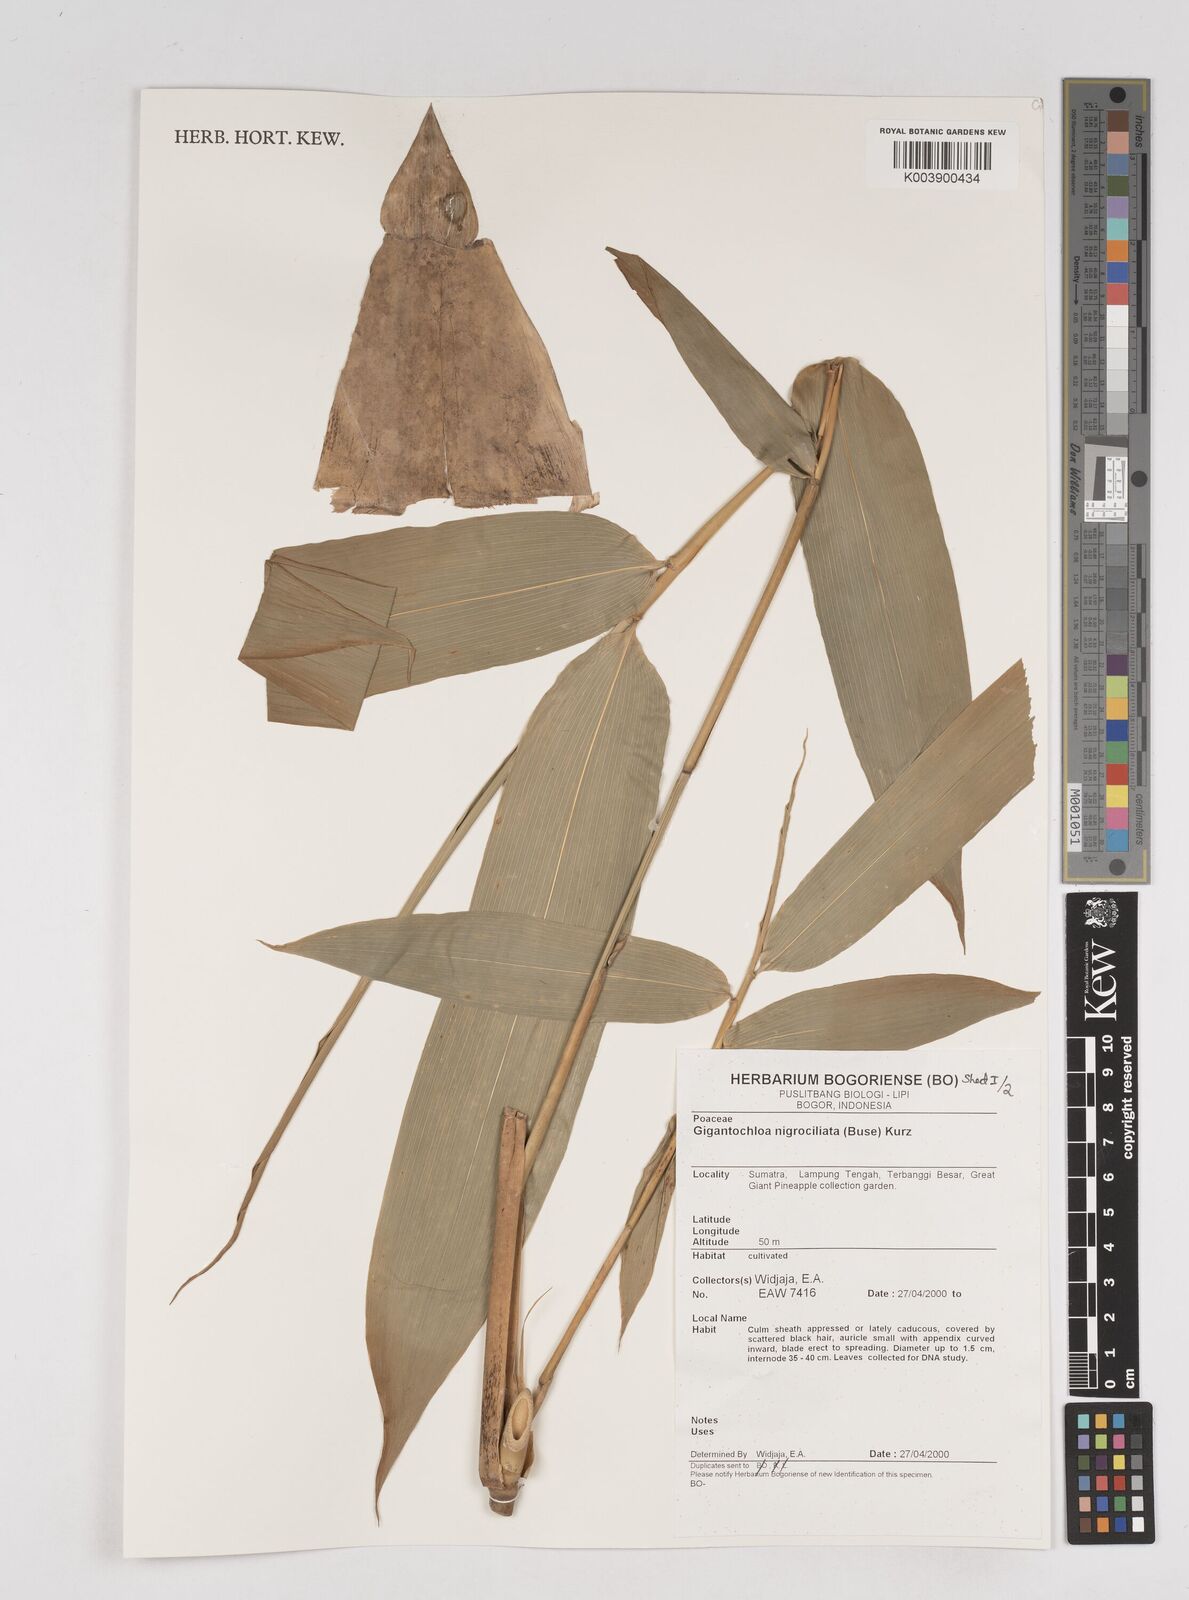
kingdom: Plantae
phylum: Tracheophyta
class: Liliopsida
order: Poales
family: Poaceae
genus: Gigantochloa
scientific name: Gigantochloa nigrociliata
